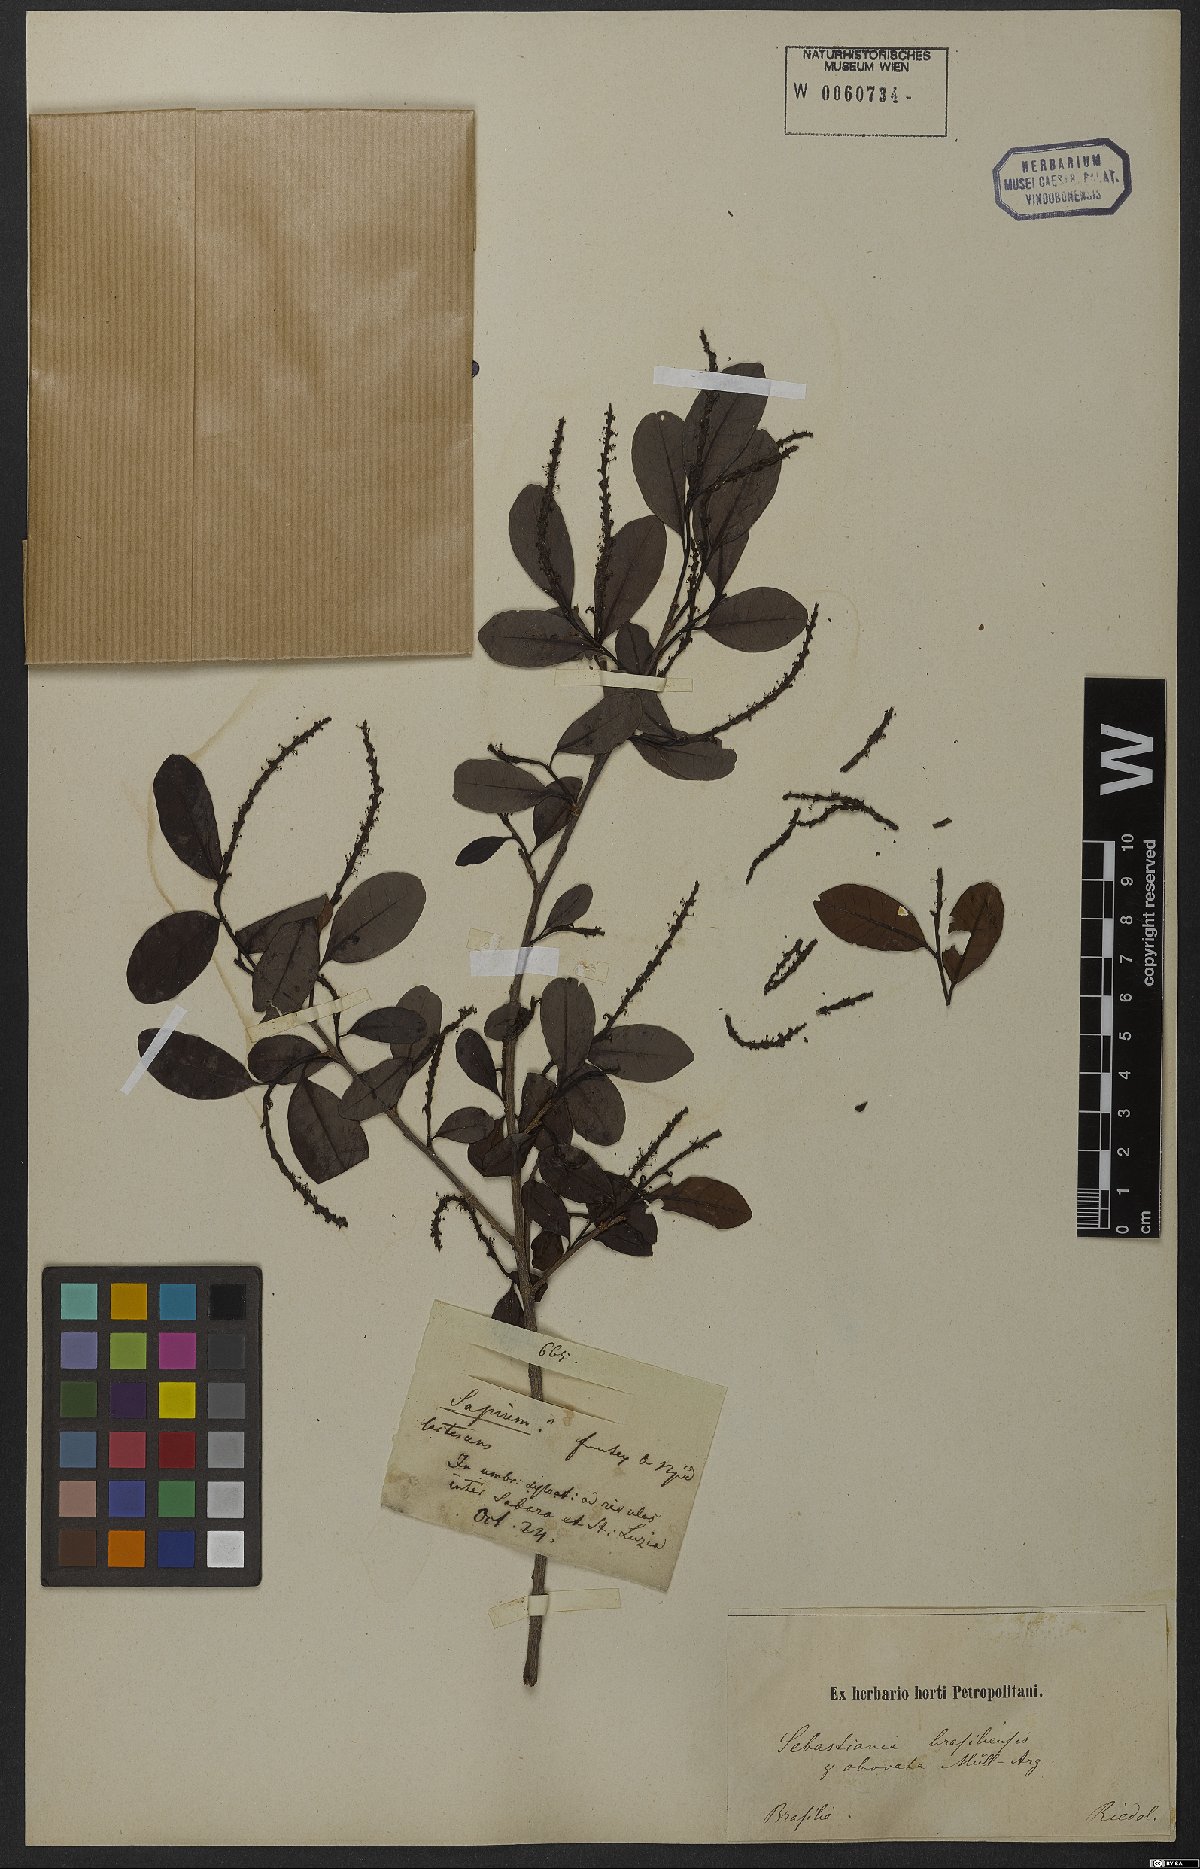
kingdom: Plantae
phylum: Tracheophyta
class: Magnoliopsida
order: Malpighiales
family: Euphorbiaceae
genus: Sebastiania
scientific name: Sebastiania ramosissima
